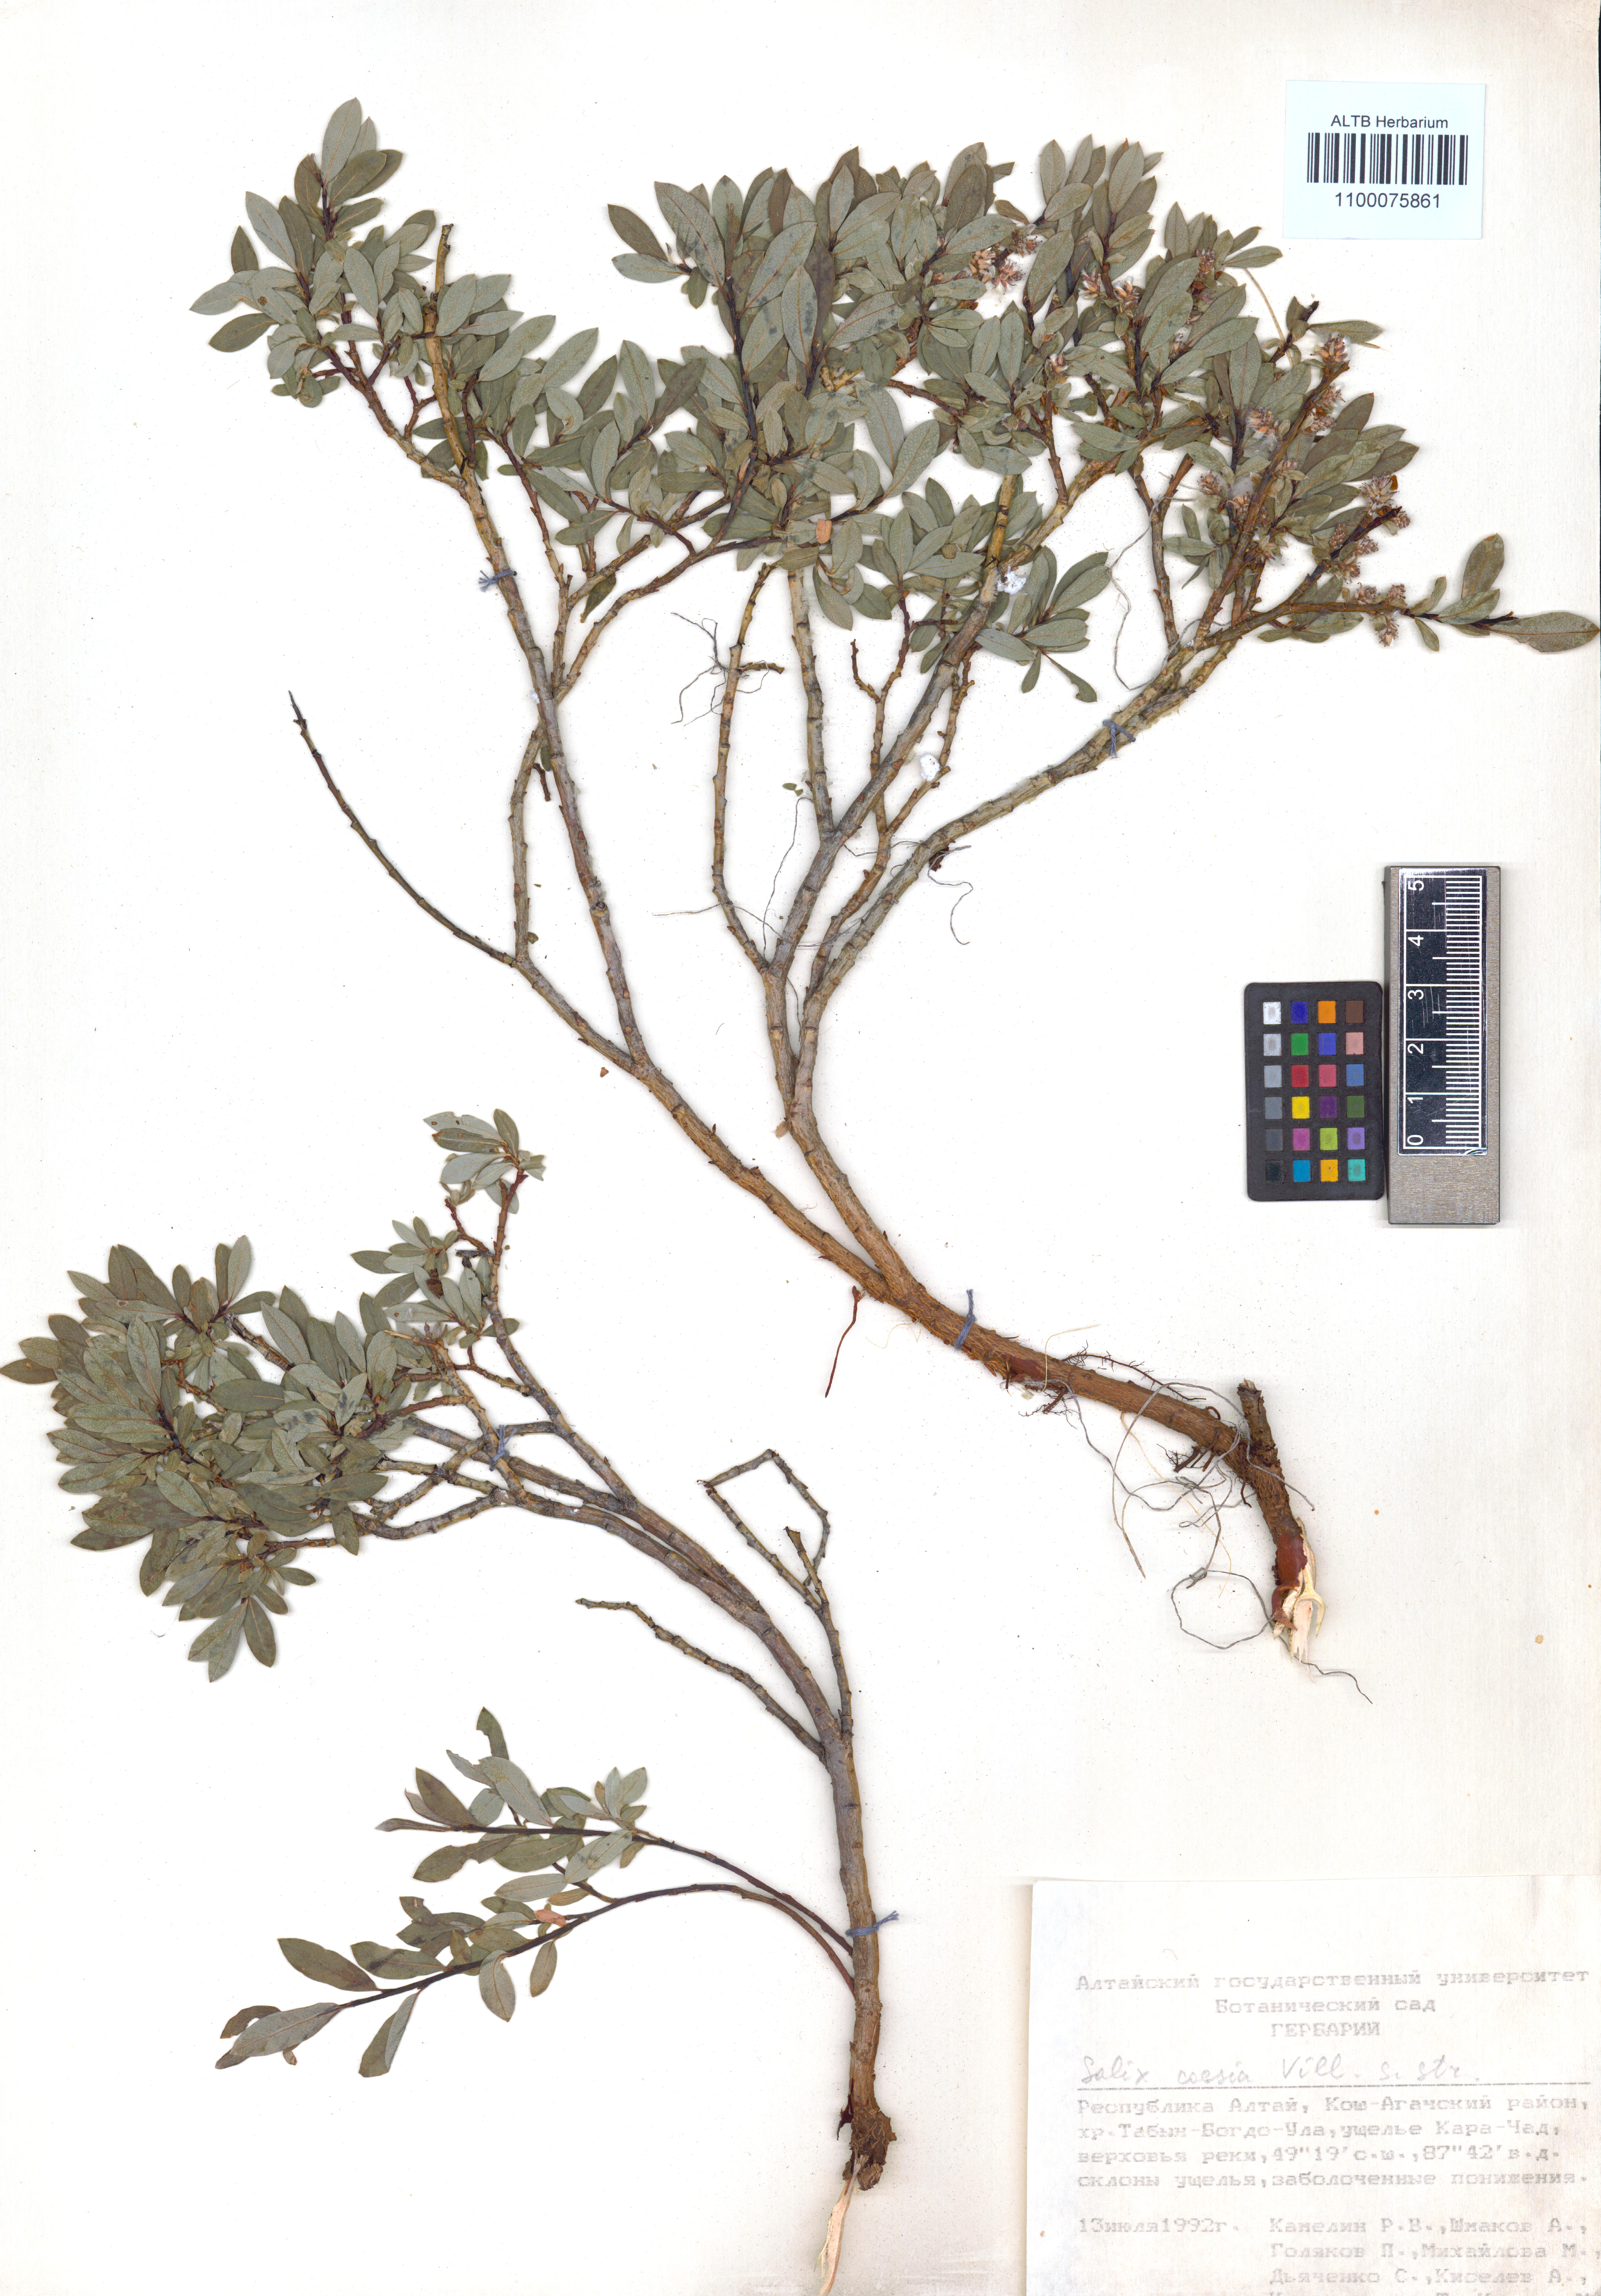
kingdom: Plantae
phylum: Tracheophyta
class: Magnoliopsida
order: Malpighiales
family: Salicaceae
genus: Salix
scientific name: Salix caesia
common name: Blue willow
